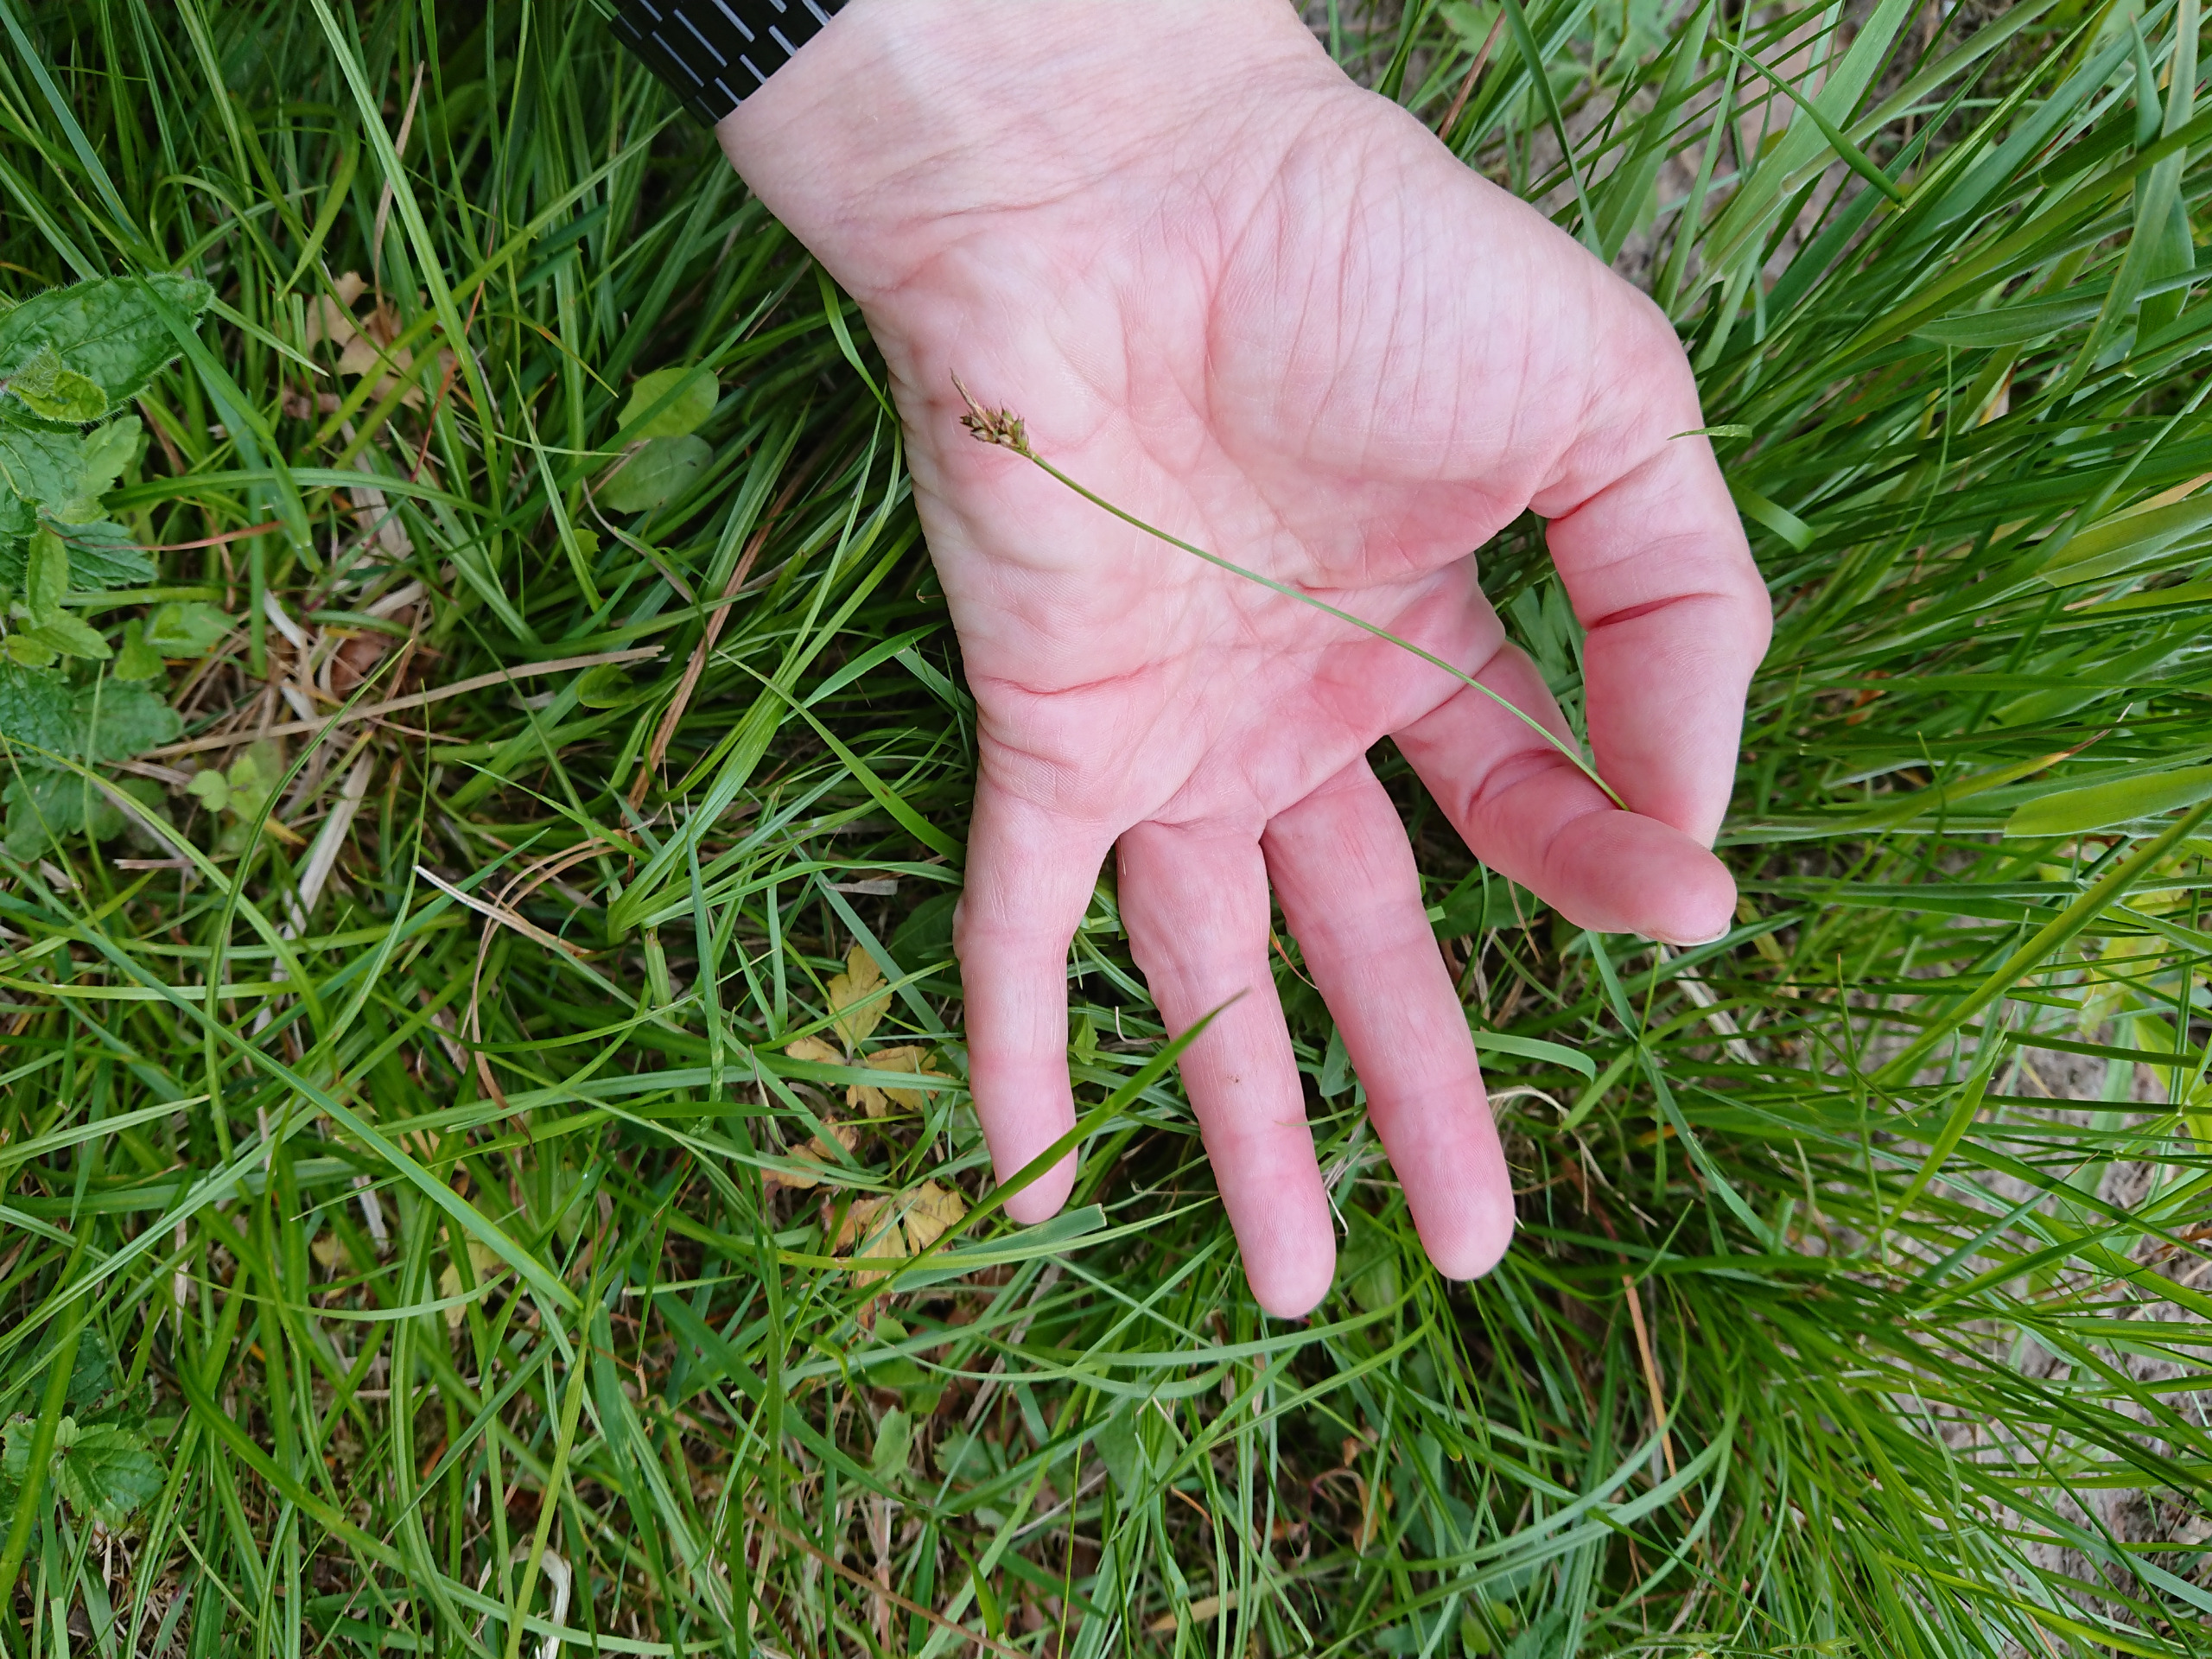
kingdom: Plantae
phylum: Tracheophyta
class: Liliopsida
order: Poales
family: Cyperaceae
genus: Carex
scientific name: Carex pilulifera
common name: Pille-star
